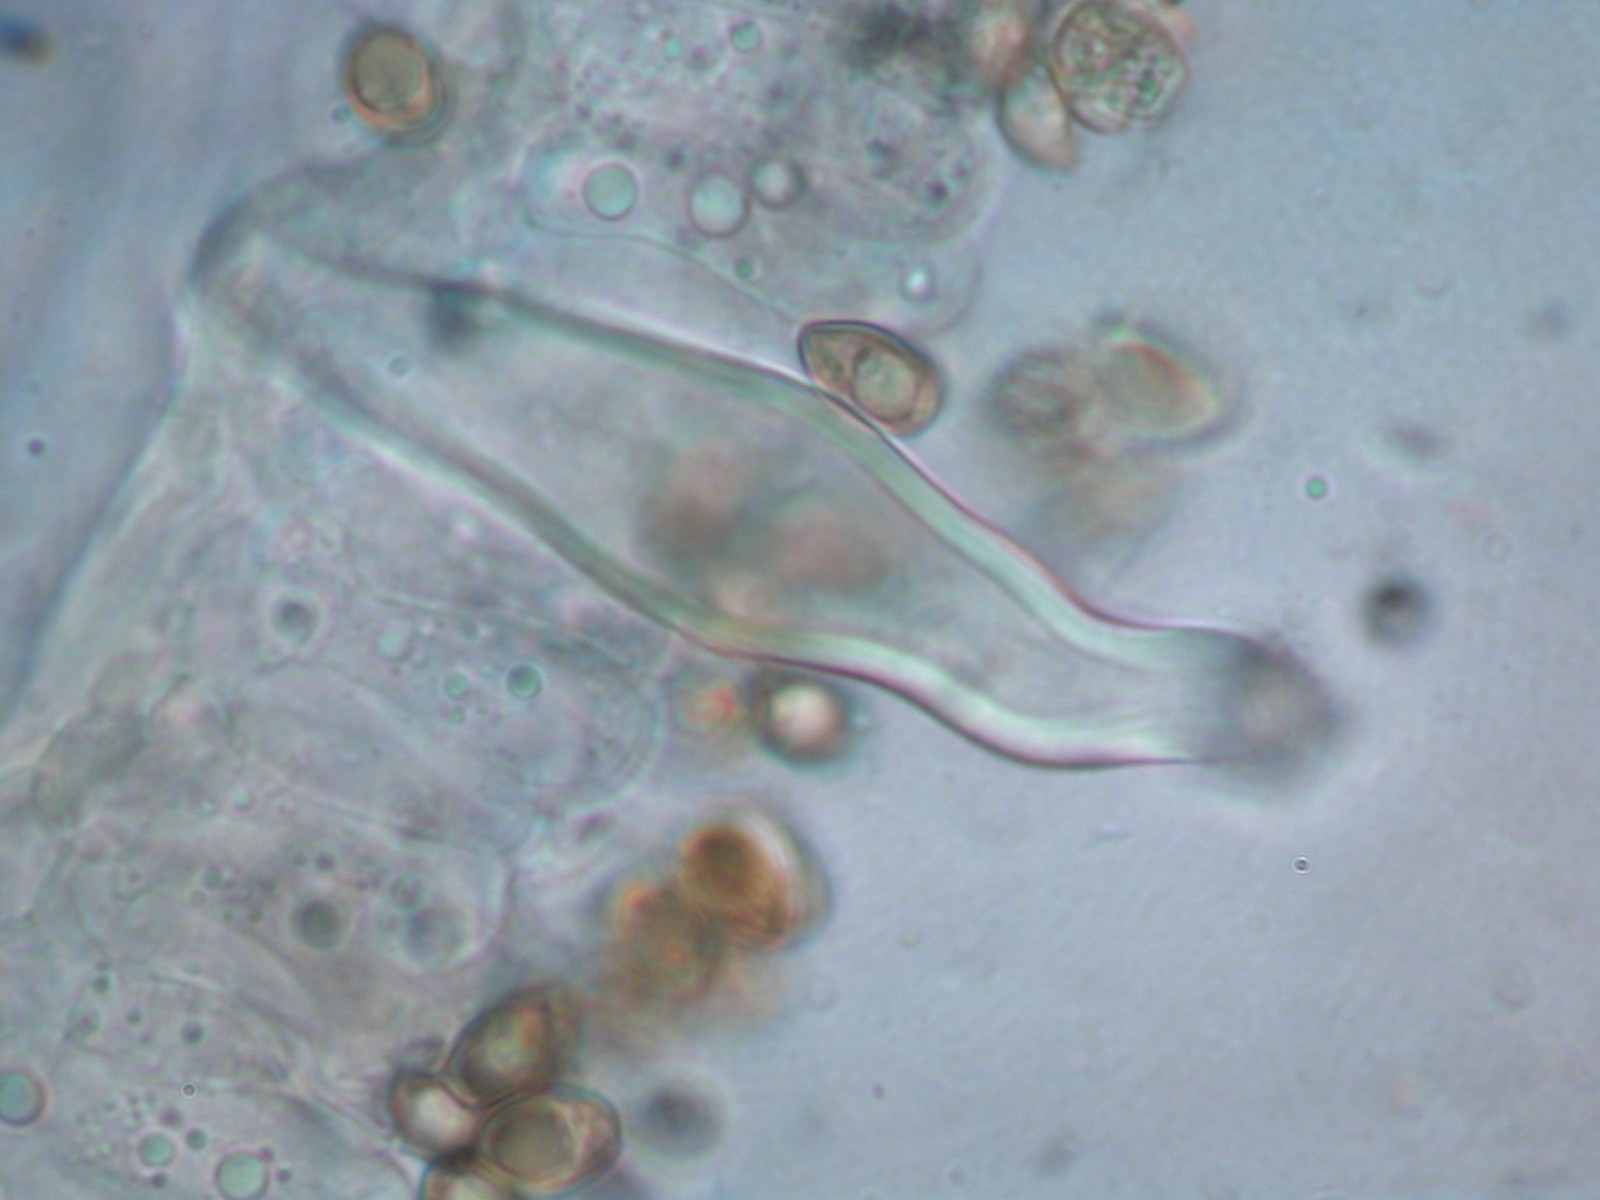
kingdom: Fungi
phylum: Basidiomycota
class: Agaricomycetes
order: Agaricales
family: Inocybaceae
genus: Inocybe
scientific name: Inocybe
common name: trævlhat
